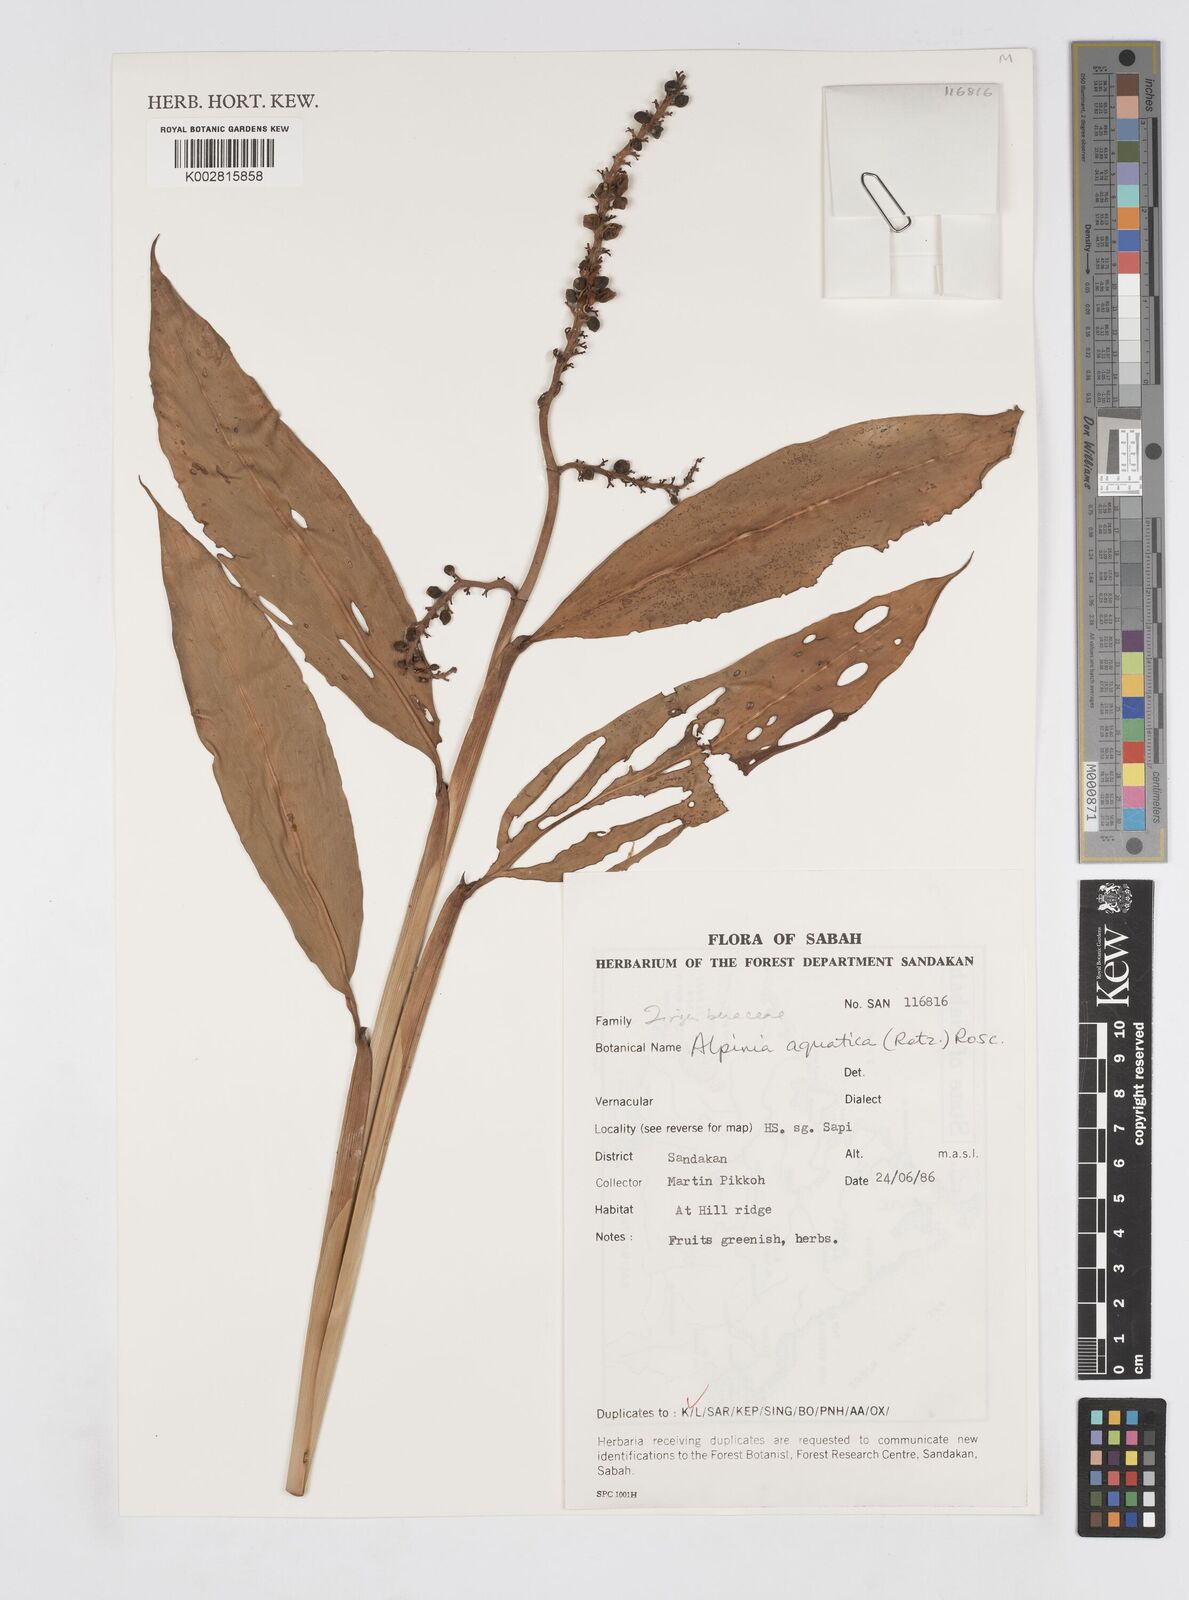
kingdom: Plantae
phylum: Tracheophyta
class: Liliopsida
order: Zingiberales
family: Zingiberaceae
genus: Alpinia
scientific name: Alpinia aquatica
